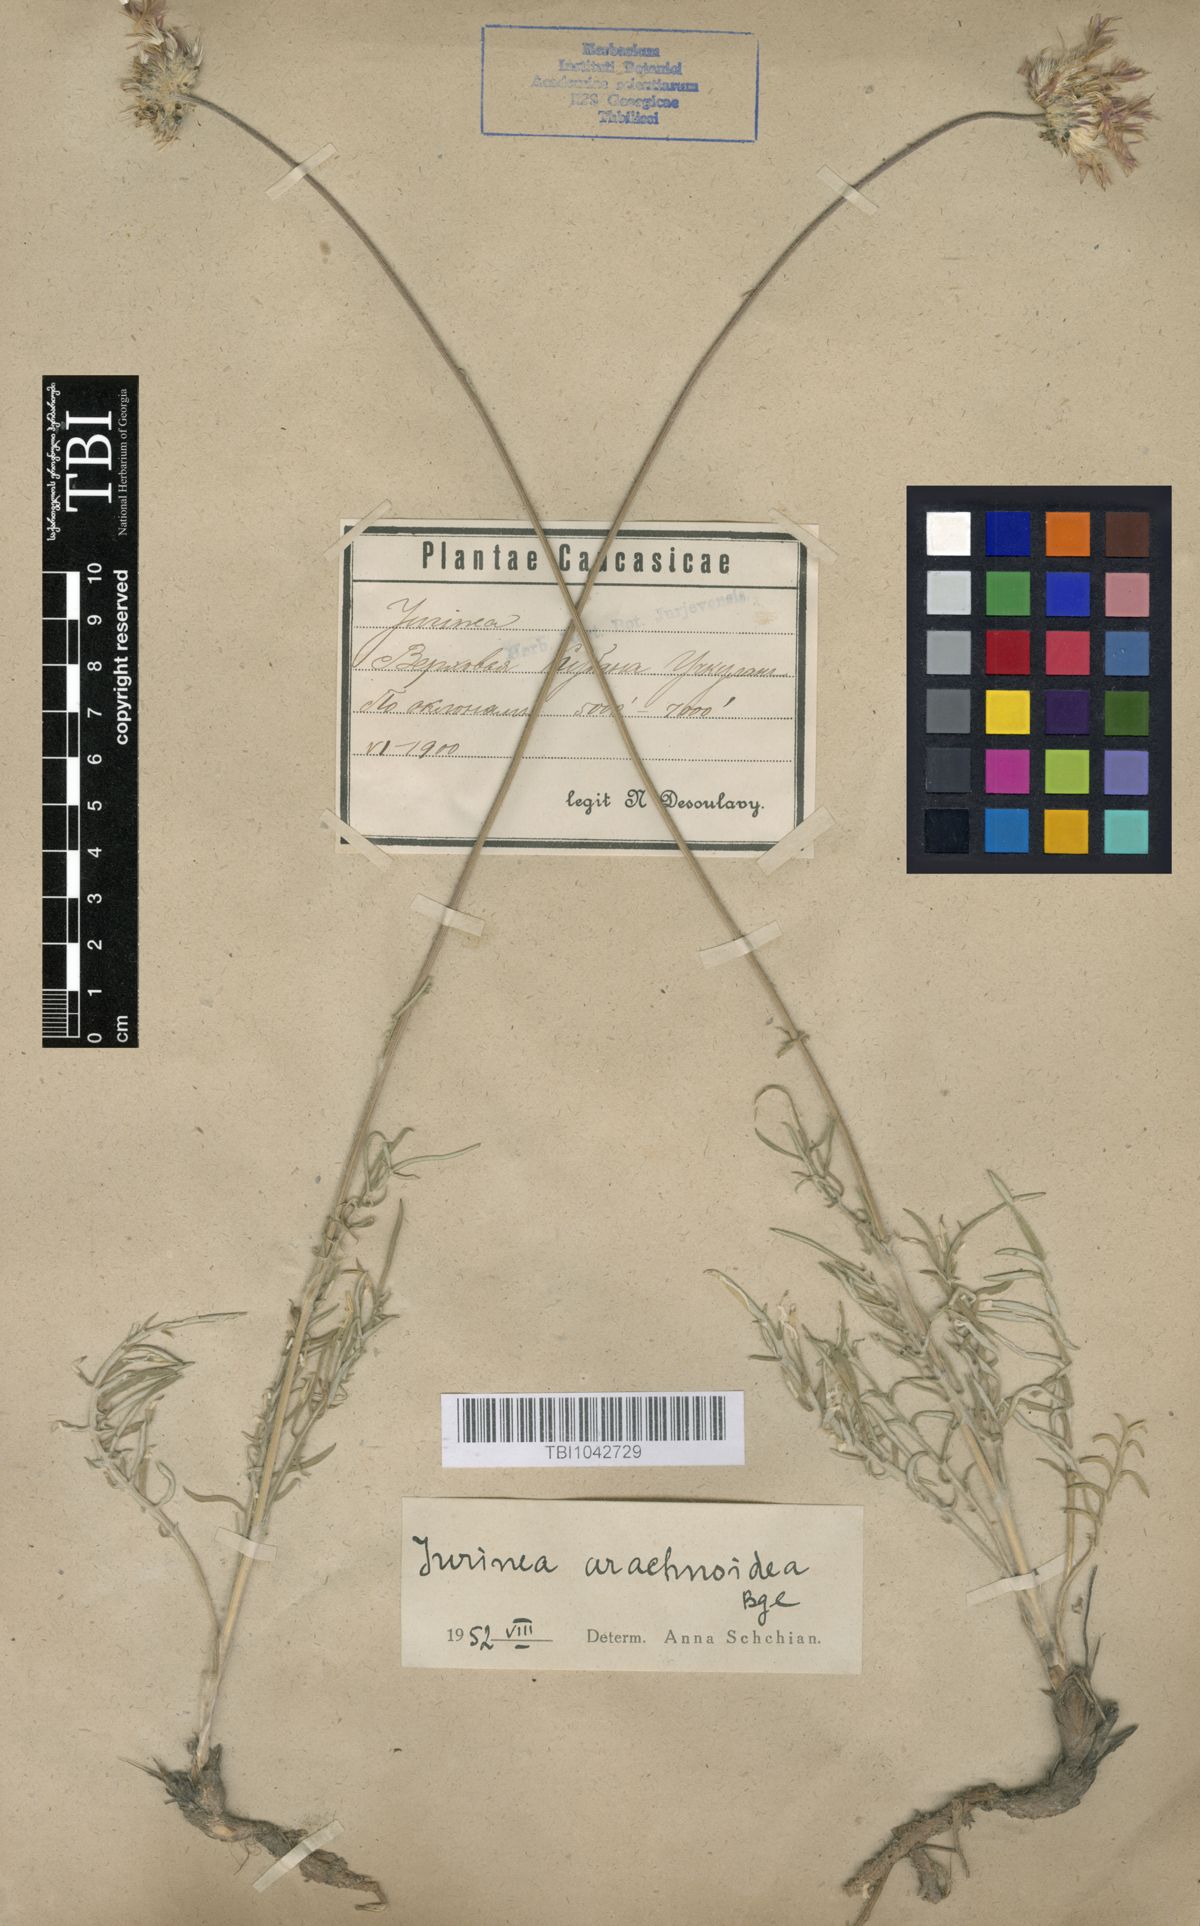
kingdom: Plantae
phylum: Tracheophyta
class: Magnoliopsida
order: Asterales
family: Asteraceae
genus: Jurinea
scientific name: Jurinea blanda
